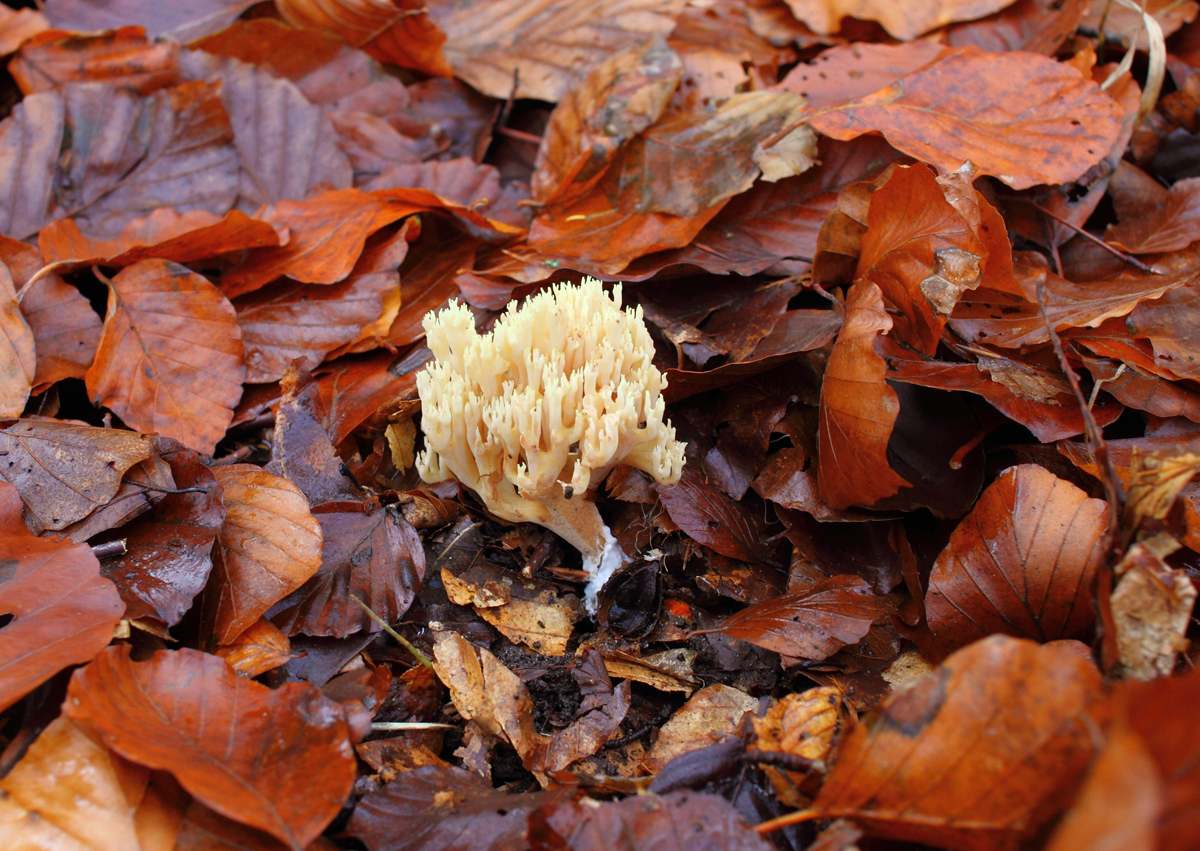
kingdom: Fungi
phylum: Basidiomycota
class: Agaricomycetes
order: Gomphales
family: Gomphaceae
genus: Ramaria
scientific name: Ramaria stricta
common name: rank koralsvamp
